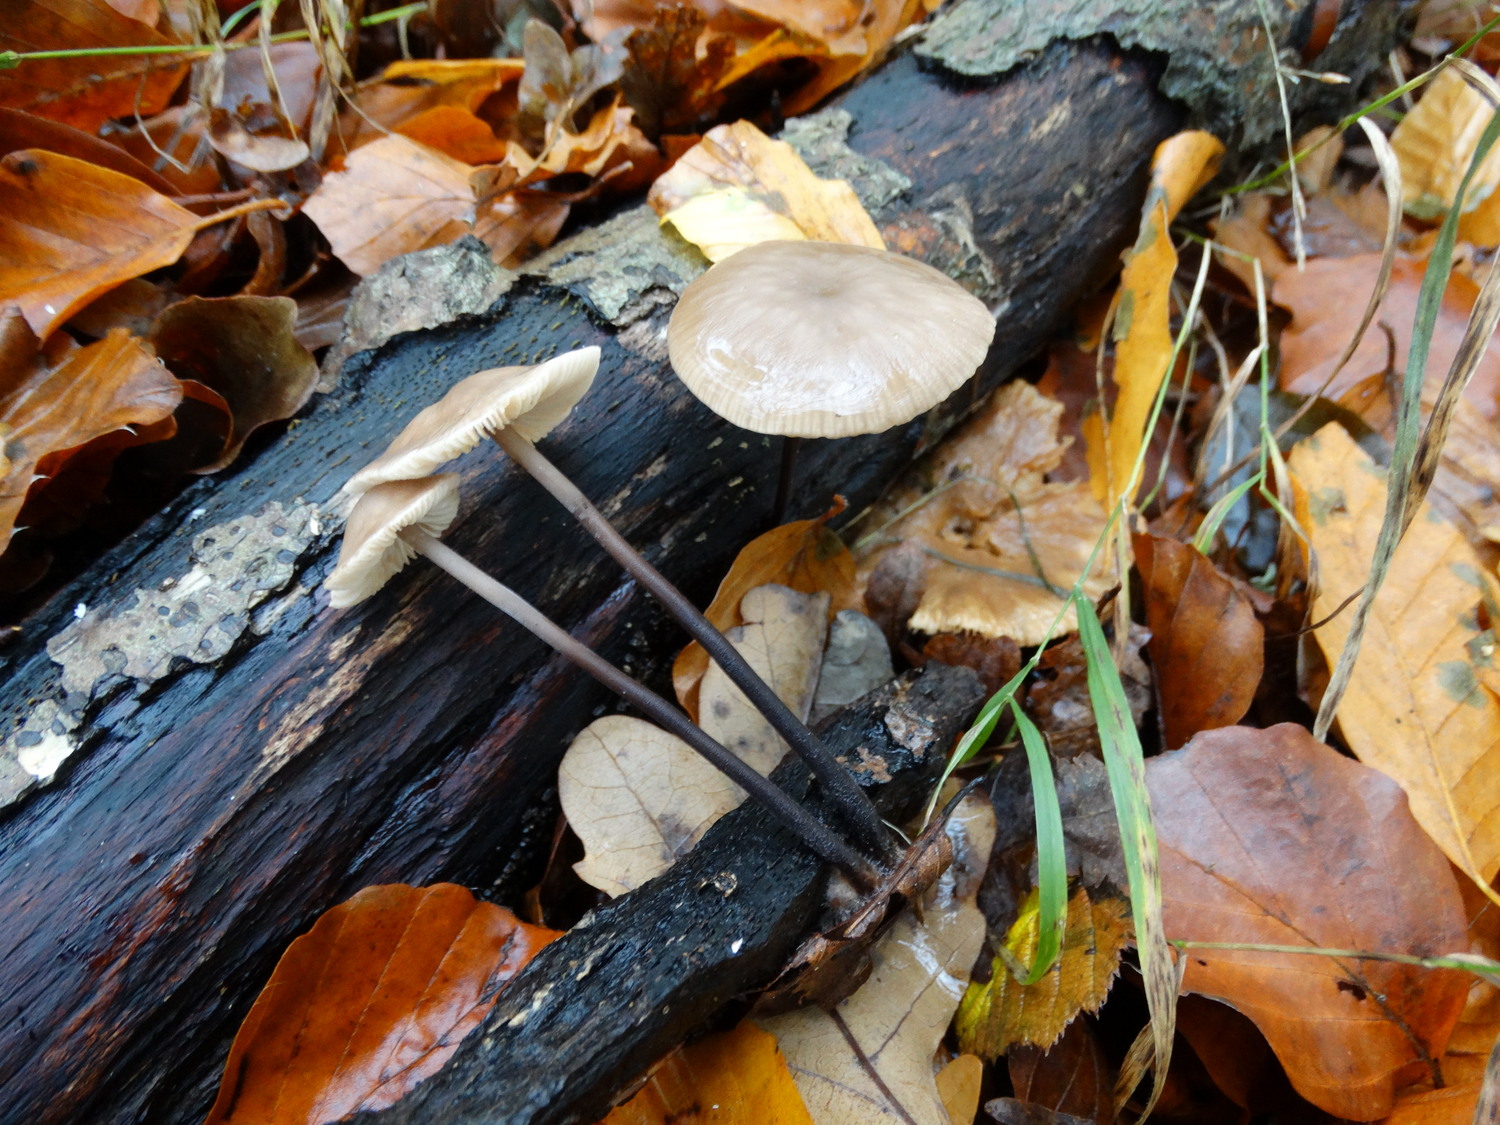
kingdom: Fungi
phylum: Basidiomycota
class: Agaricomycetes
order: Agaricales
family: Omphalotaceae
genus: Mycetinis
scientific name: Mycetinis alliaceus
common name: stor løghat
